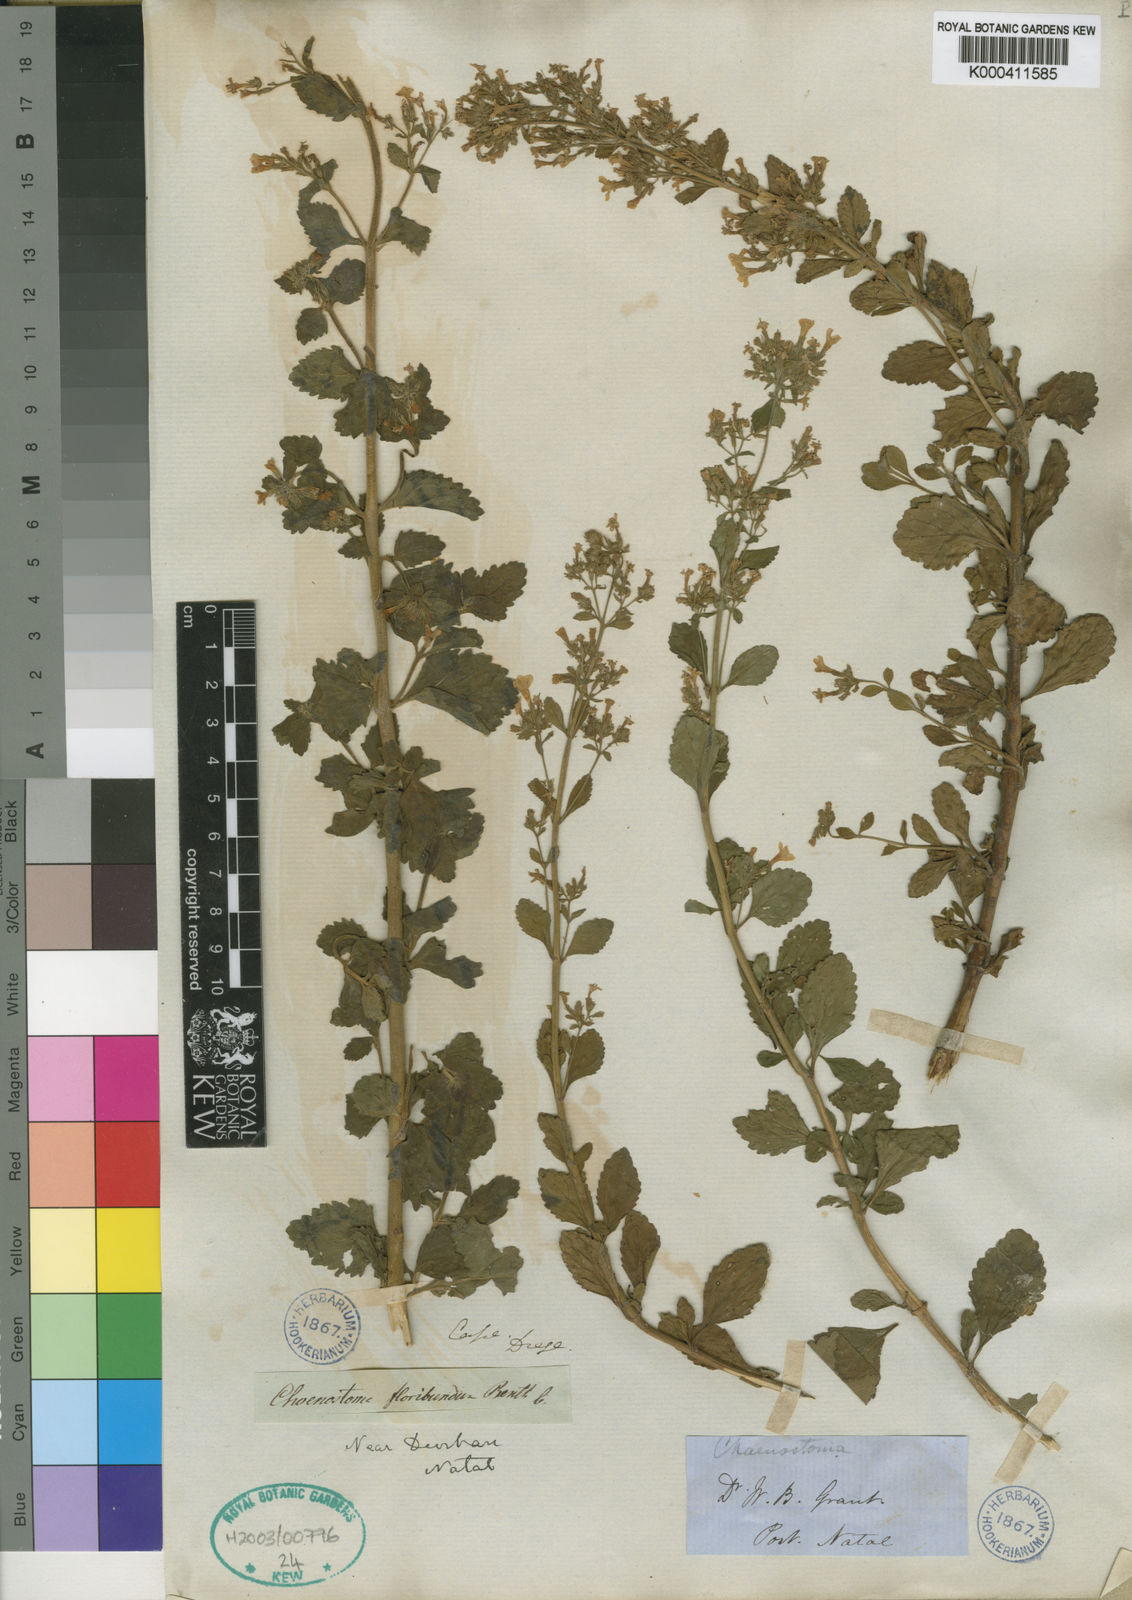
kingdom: Plantae
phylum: Tracheophyta
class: Magnoliopsida
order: Lamiales
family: Scrophulariaceae
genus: Chaenostoma
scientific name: Chaenostoma floribundum
